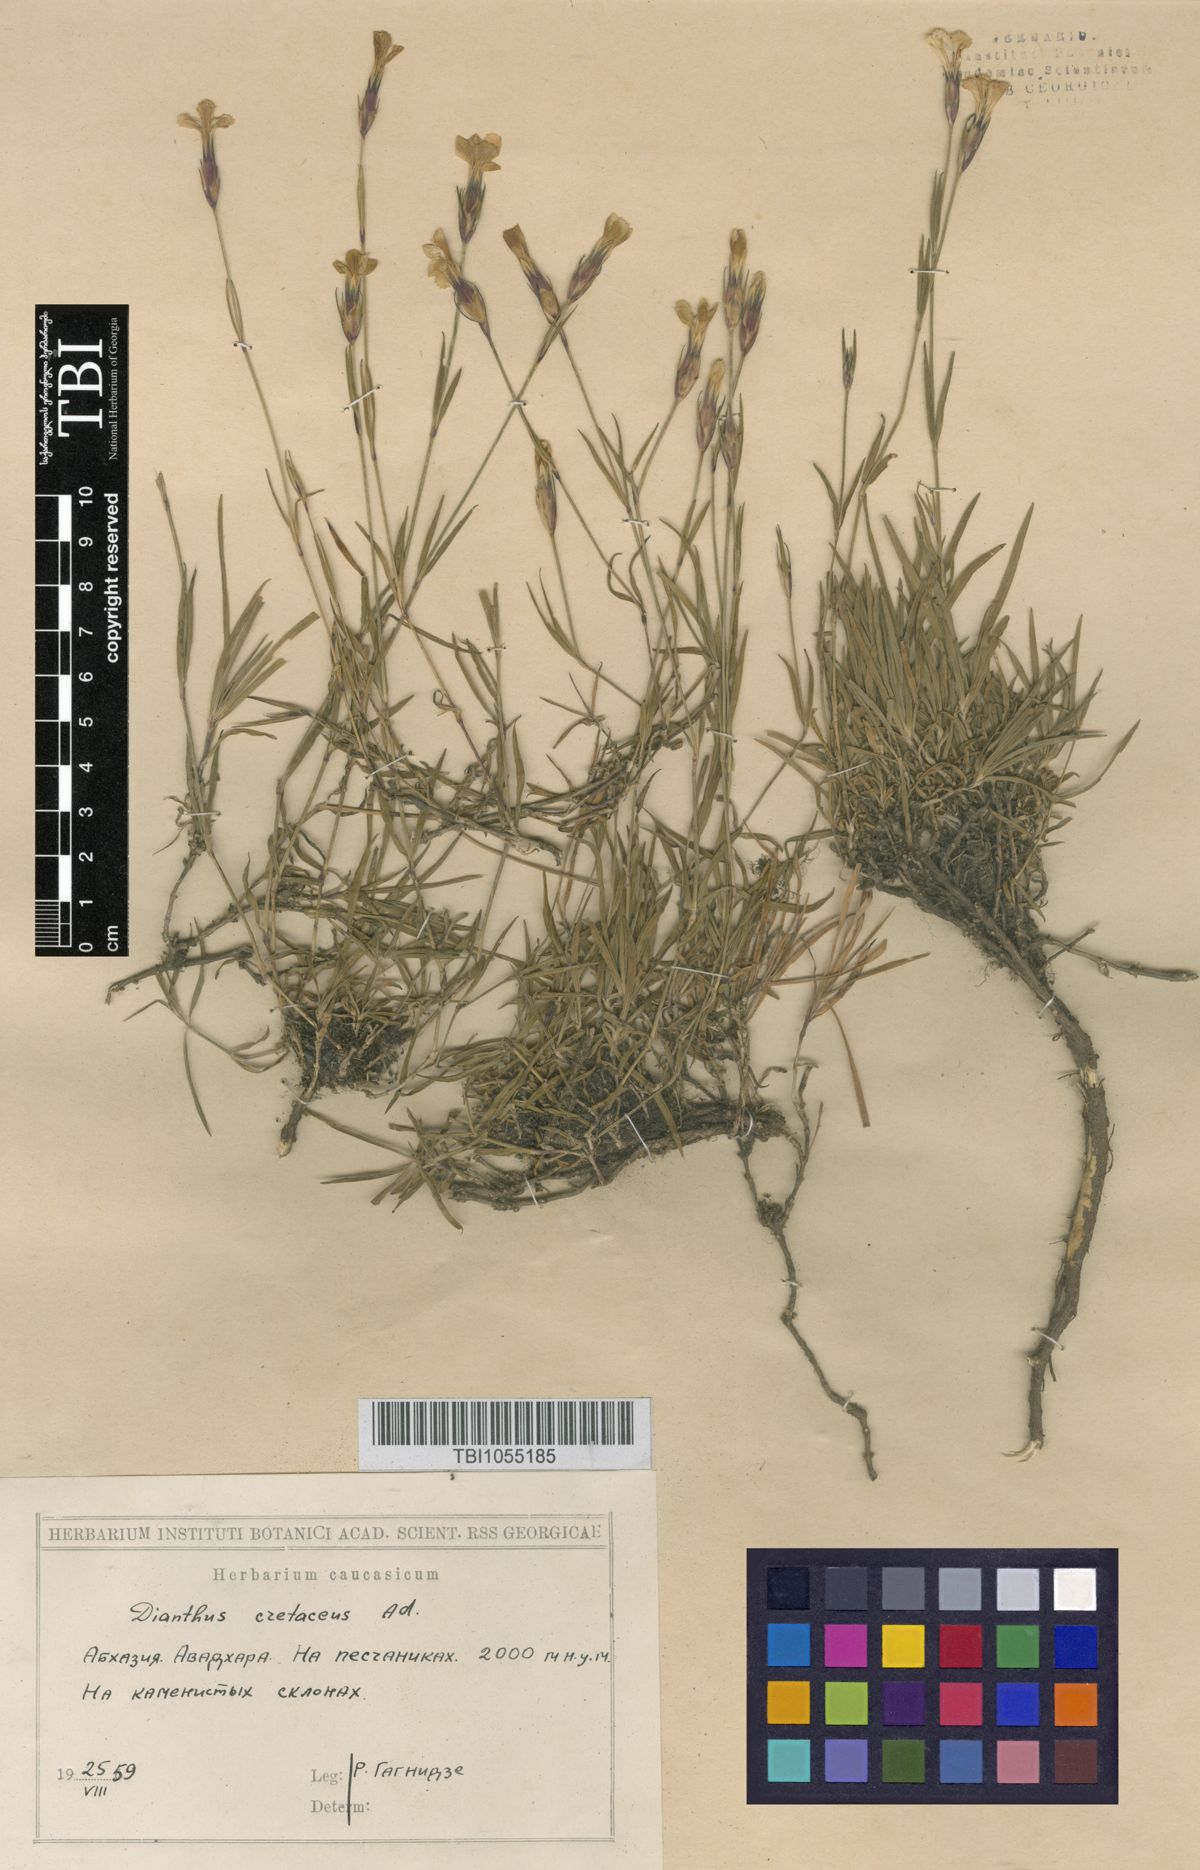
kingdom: Plantae
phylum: Tracheophyta
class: Magnoliopsida
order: Caryophyllales
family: Caryophyllaceae
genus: Dianthus
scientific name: Dianthus cretaceus
